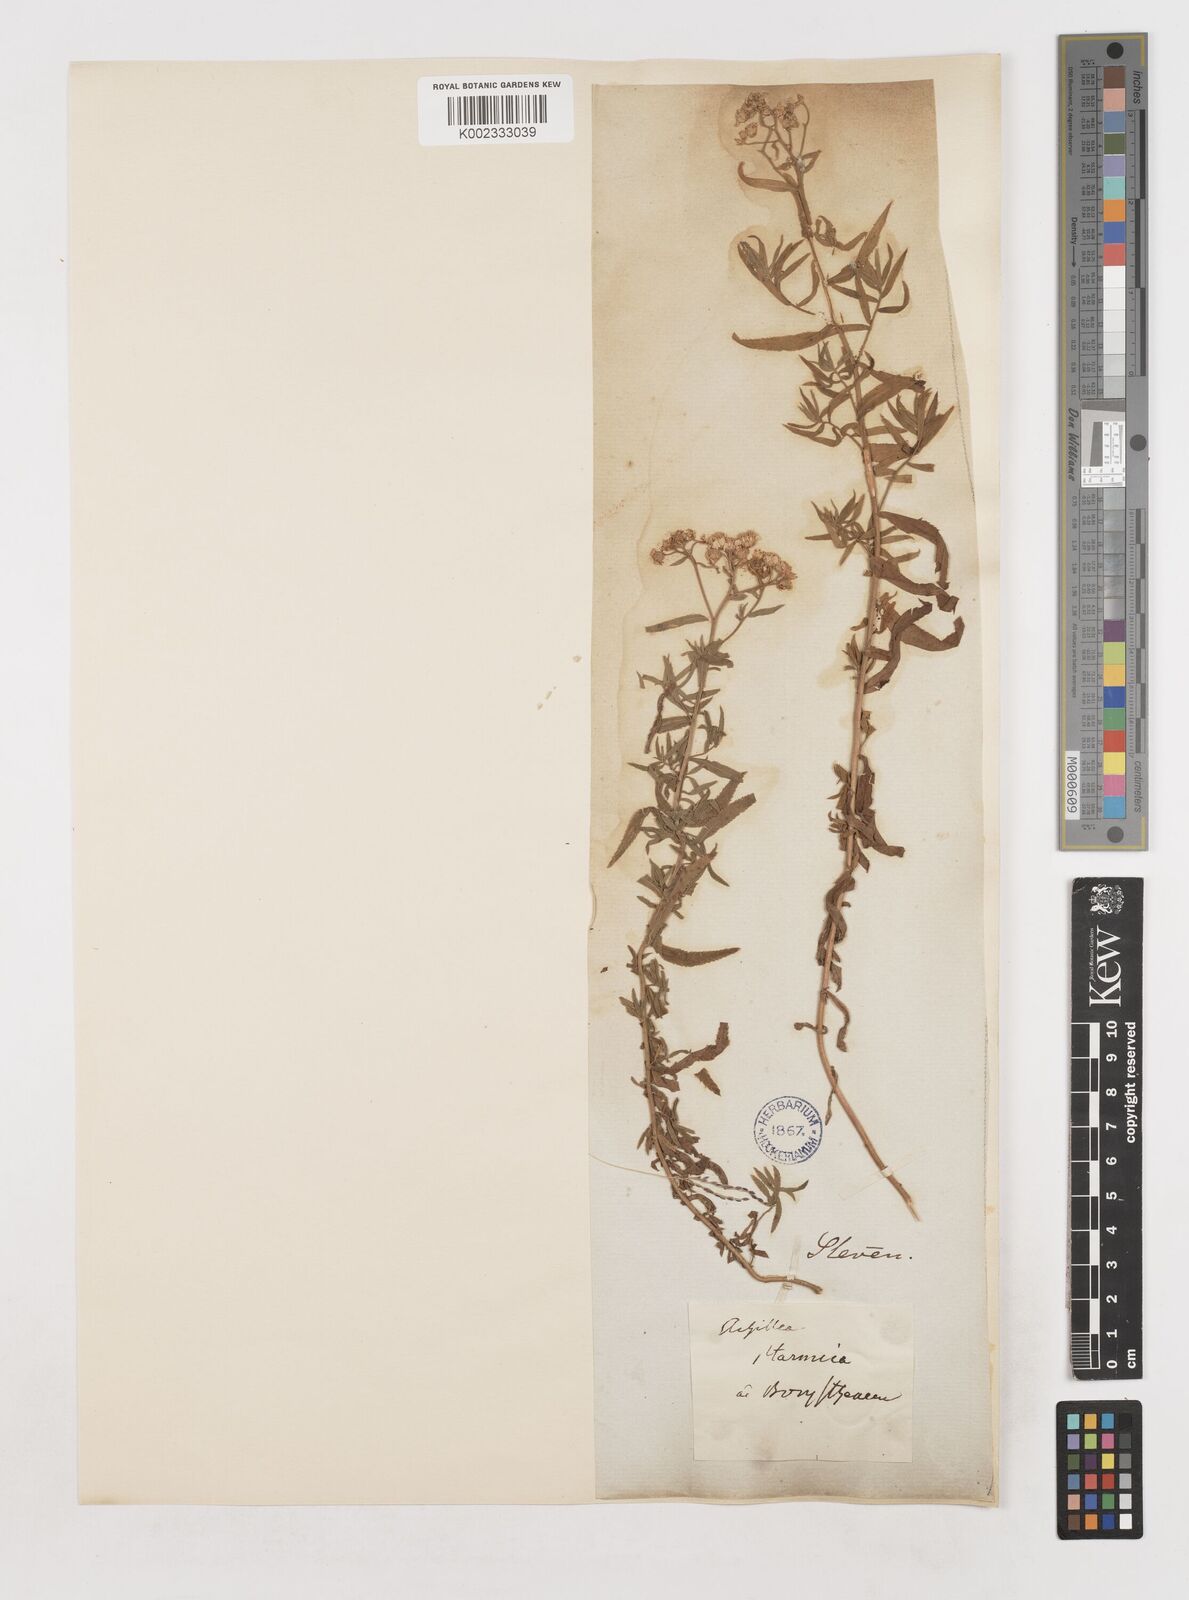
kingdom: Plantae
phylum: Tracheophyta
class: Magnoliopsida
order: Asterales
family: Asteraceae
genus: Achillea
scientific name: Achillea ptarmica
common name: Sneezeweed
